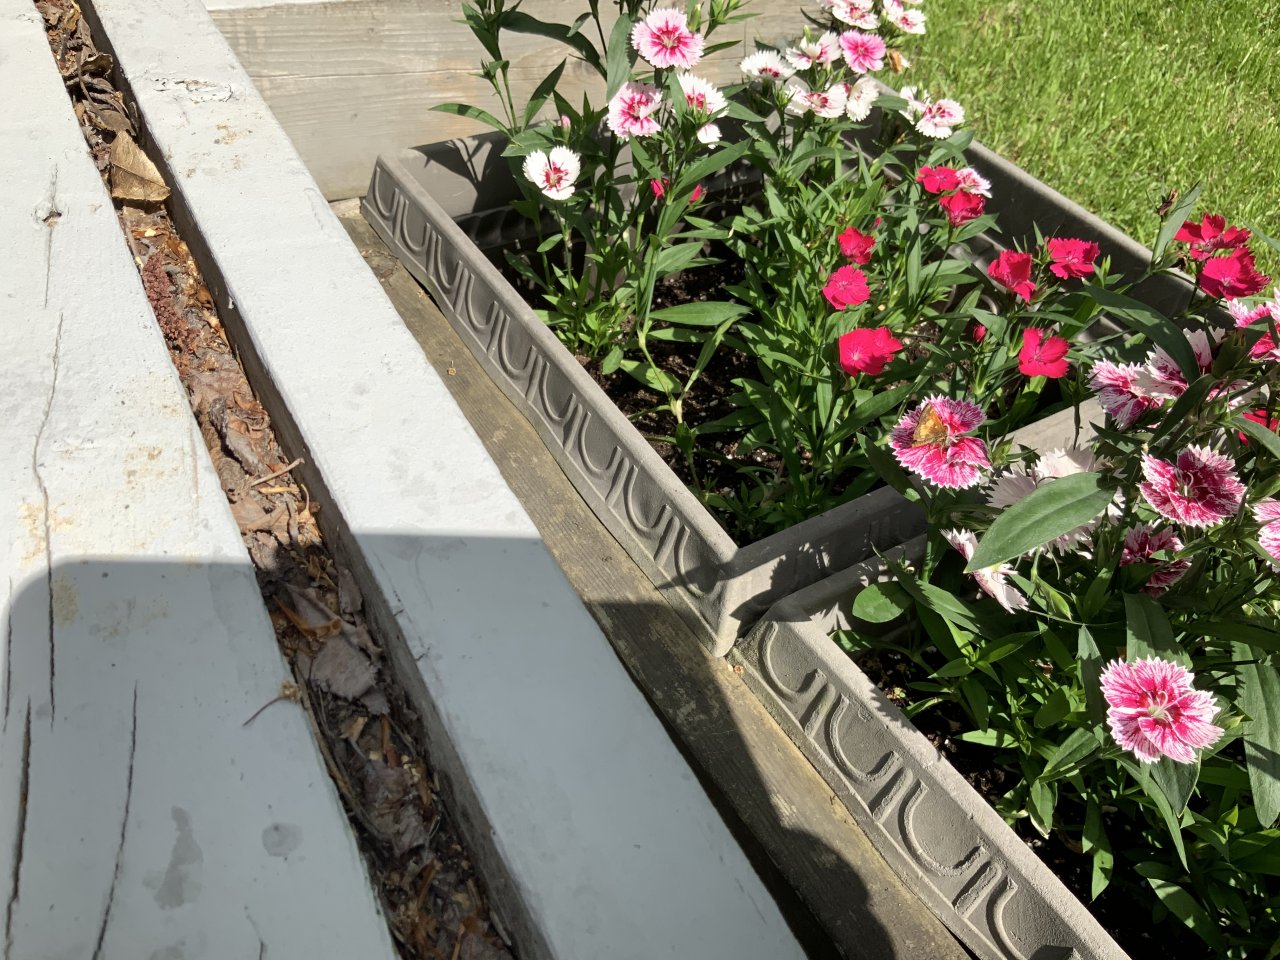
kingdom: Animalia
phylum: Arthropoda
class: Insecta
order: Lepidoptera
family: Hesperiidae
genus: Lon
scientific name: Lon hobomok
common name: Hobomok Skipper
